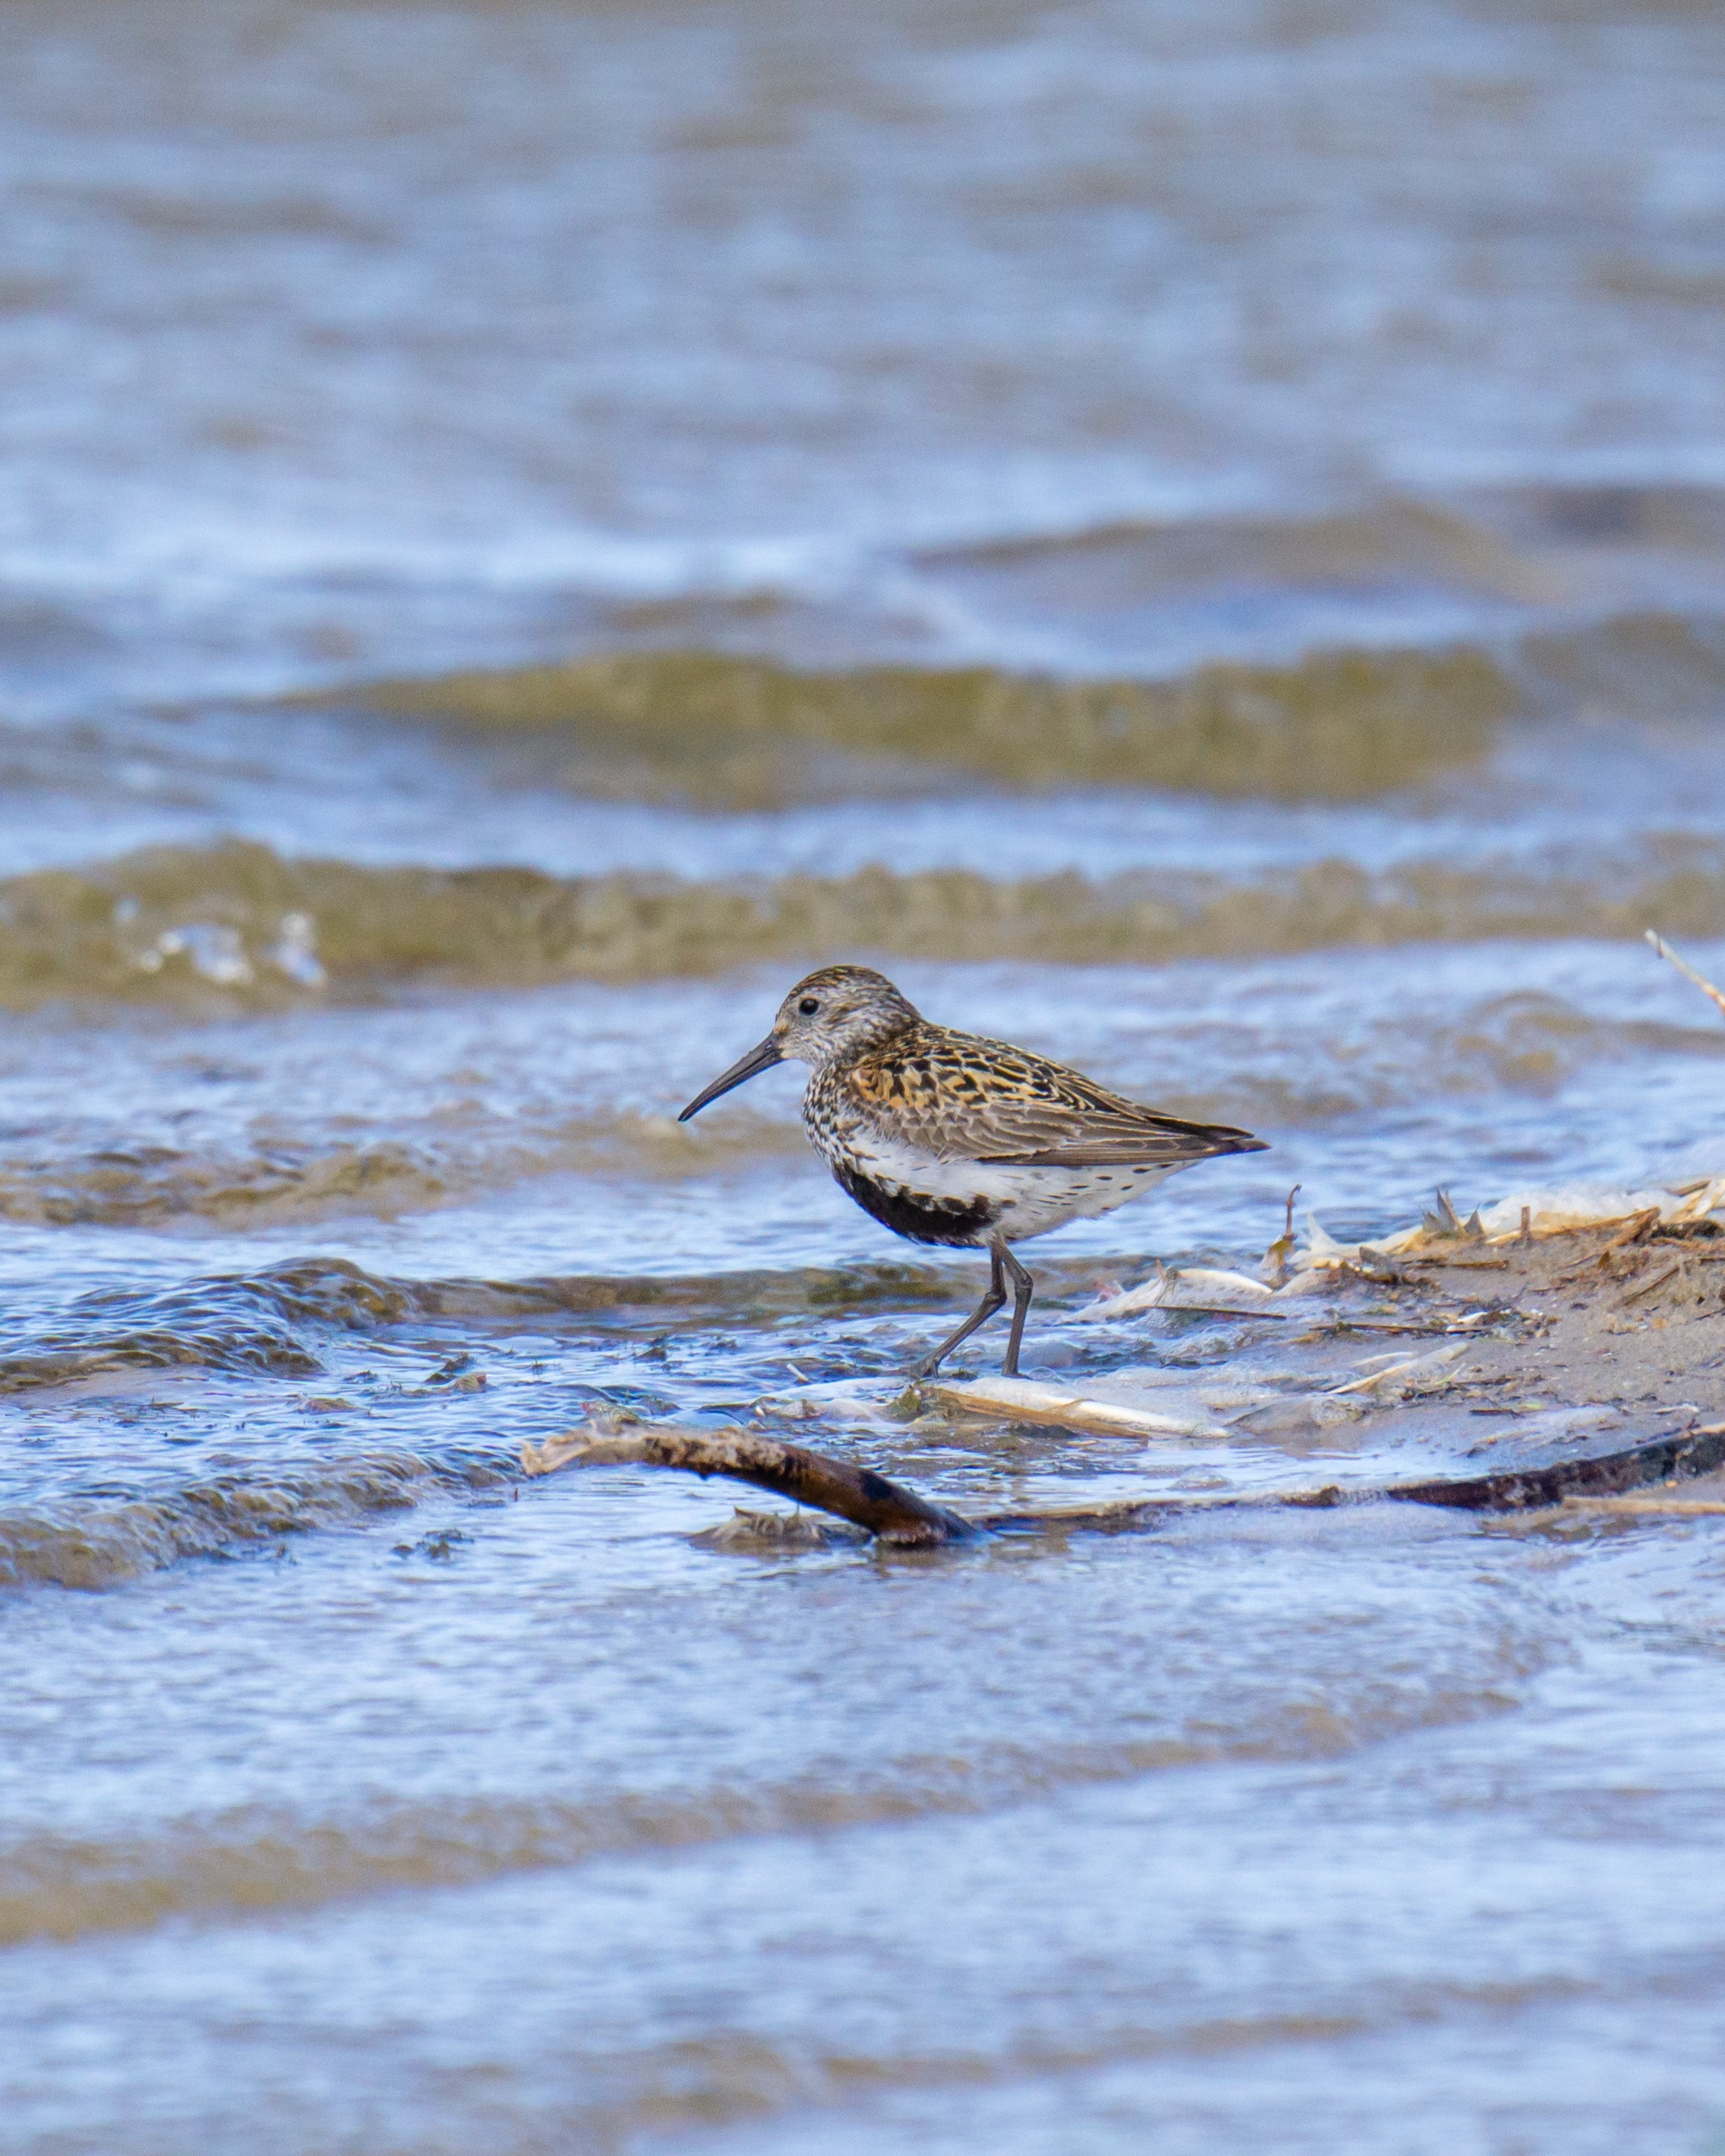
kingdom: Animalia
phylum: Chordata
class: Aves
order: Charadriiformes
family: Scolopacidae
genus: Calidris
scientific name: Calidris alpina
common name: Almindelig ryle
